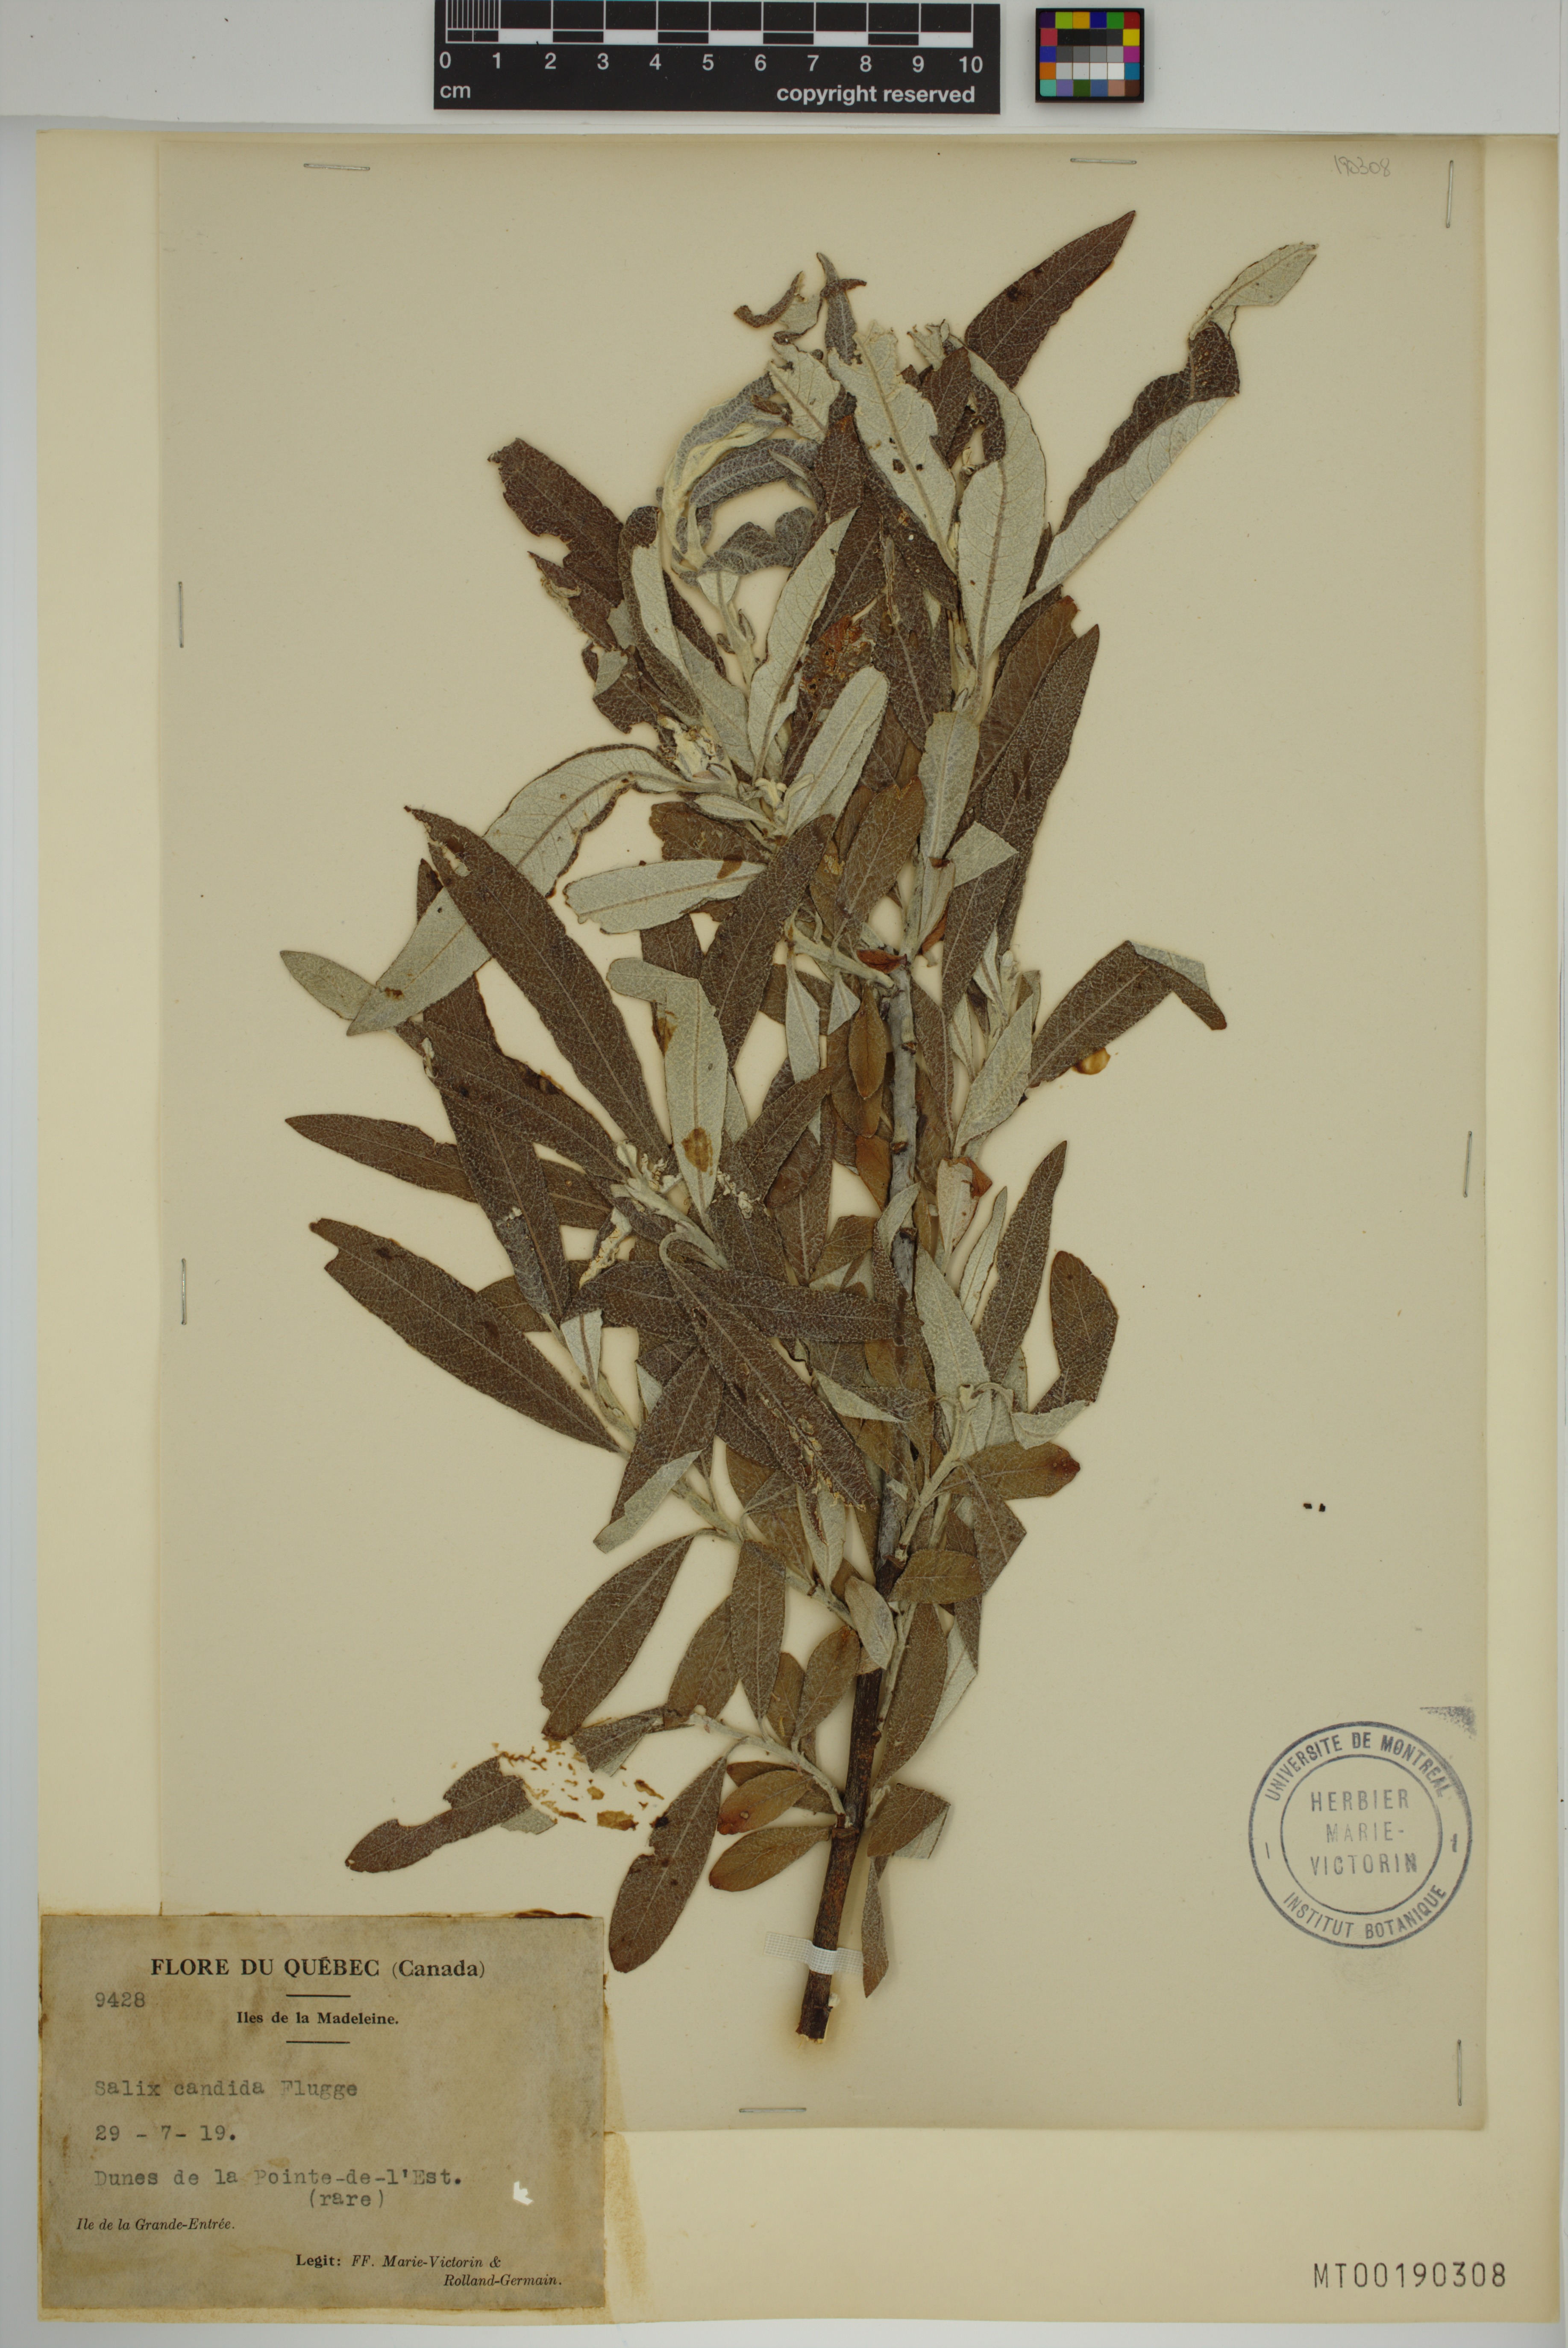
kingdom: Plantae
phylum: Tracheophyta
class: Magnoliopsida
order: Malpighiales
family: Salicaceae
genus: Salix
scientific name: Salix candida
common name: Hoary willow
